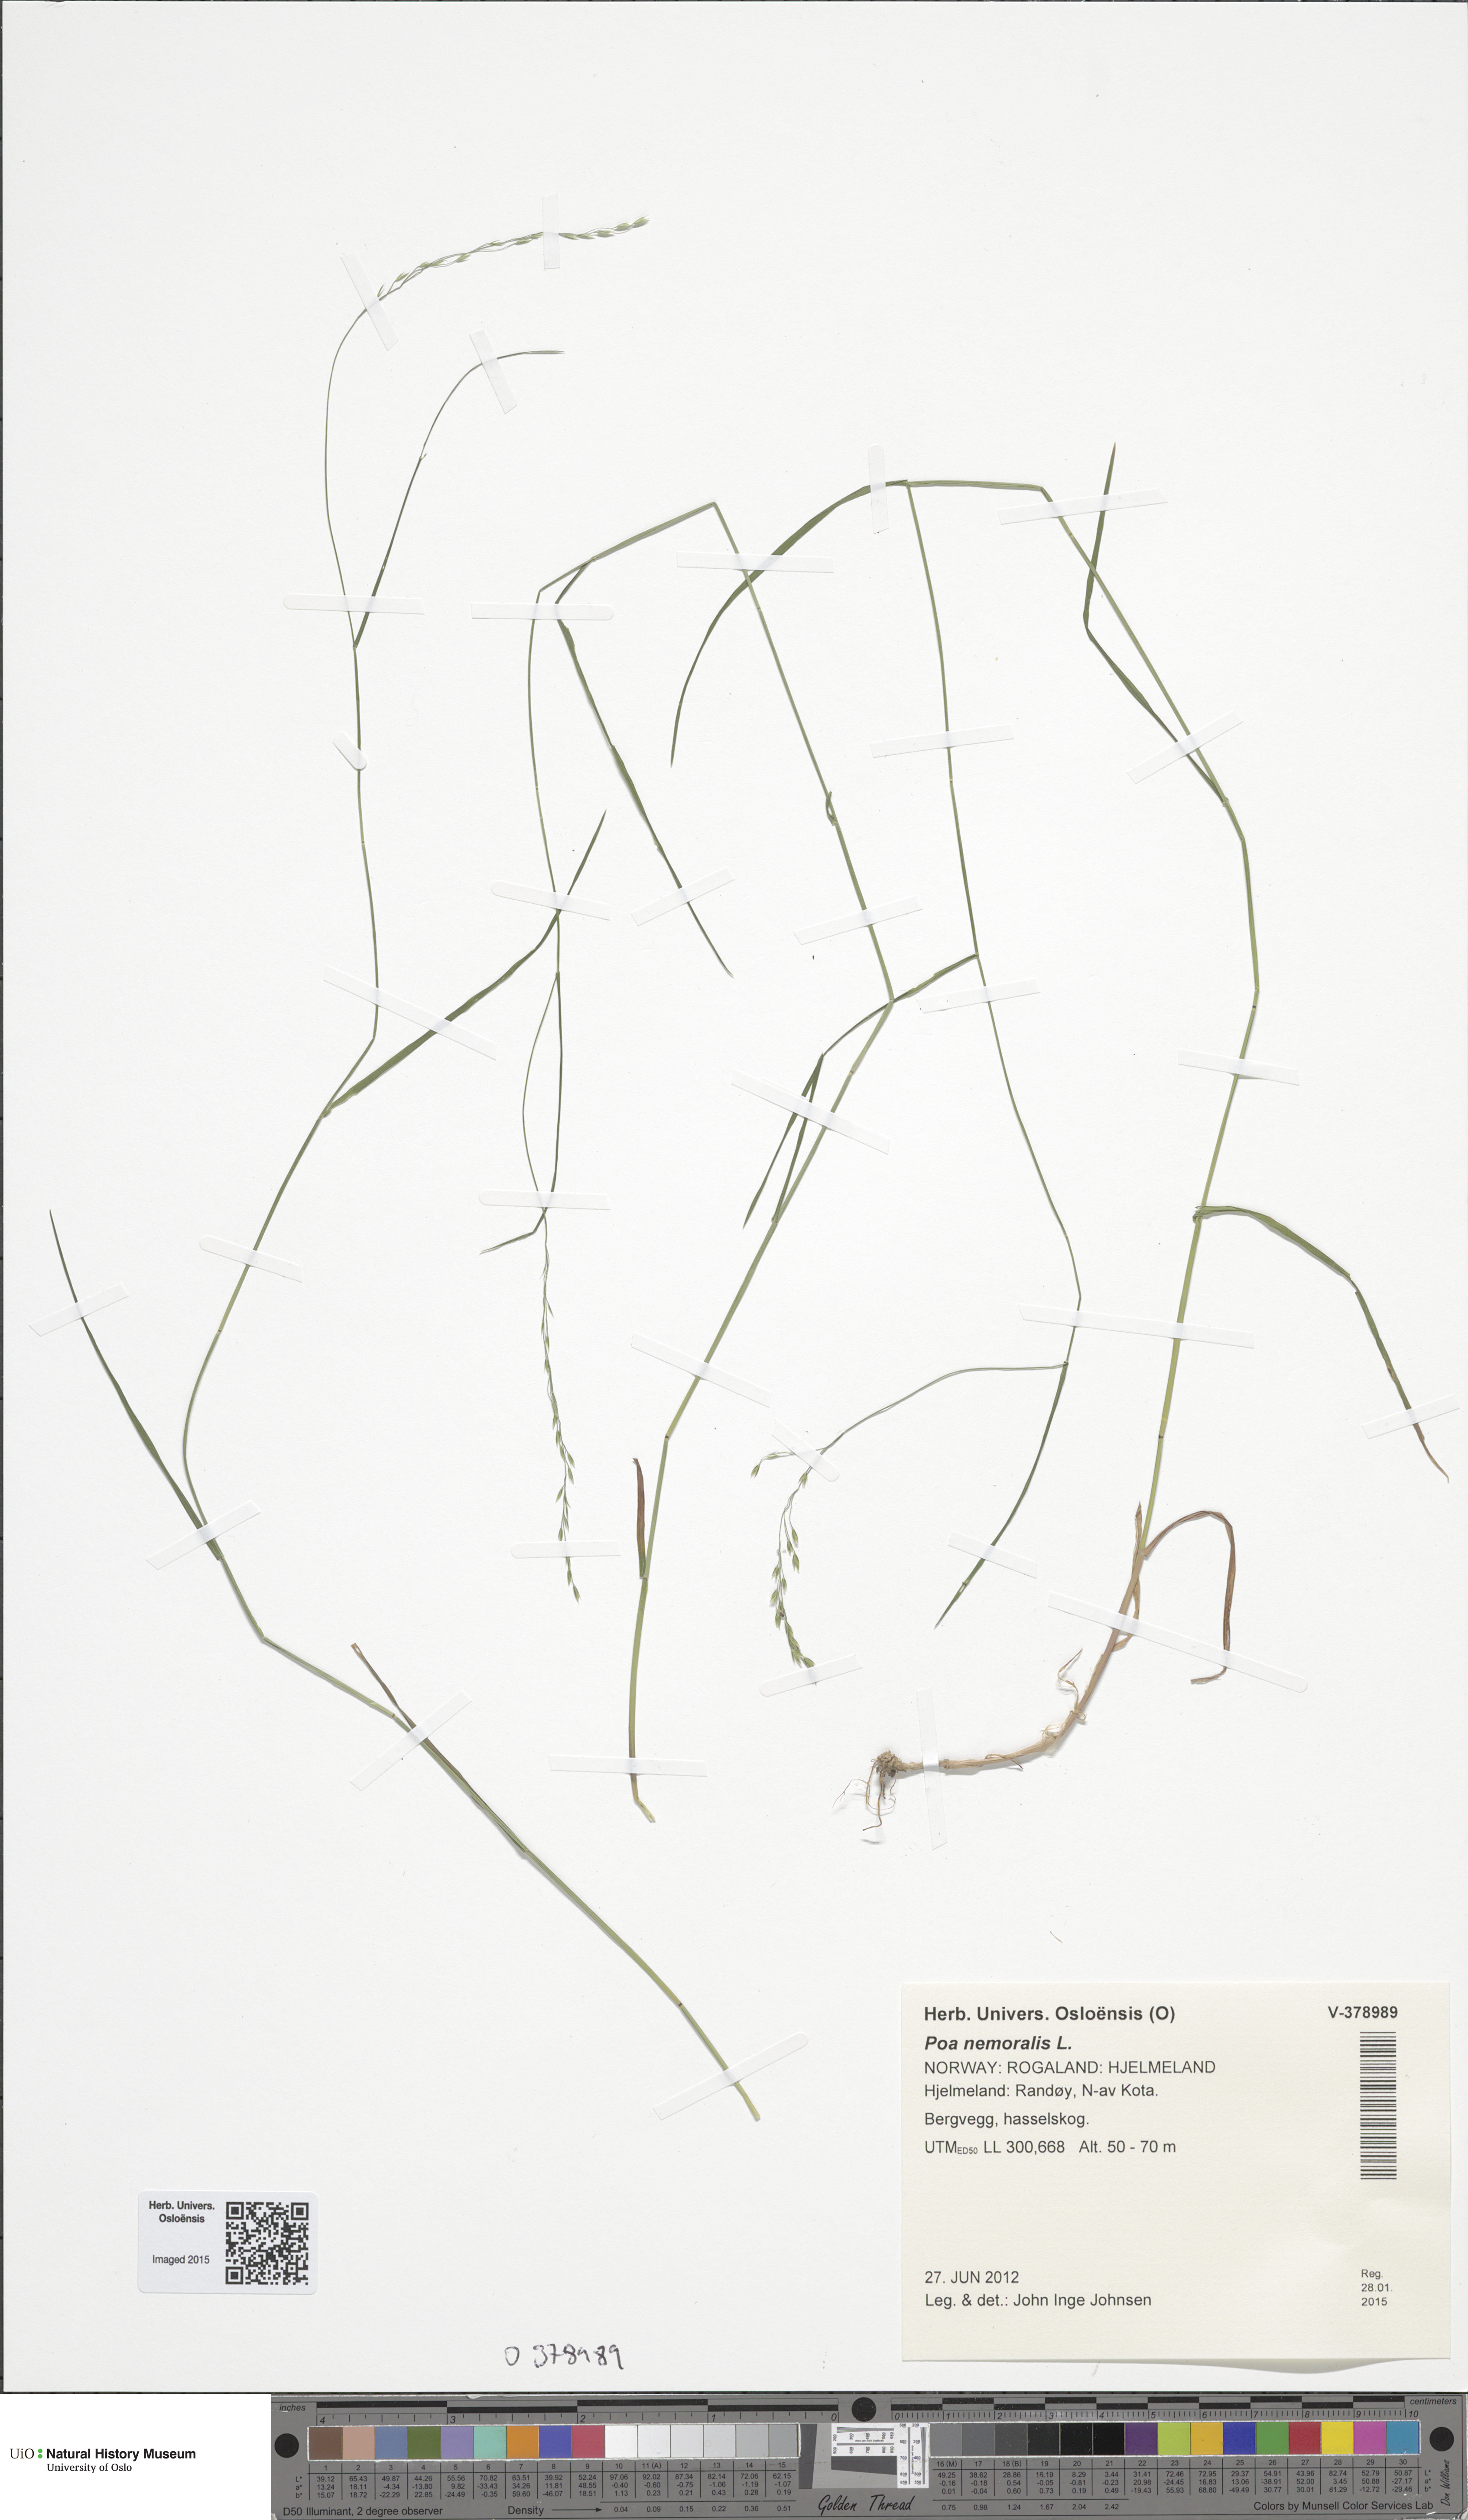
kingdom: Plantae
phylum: Tracheophyta
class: Liliopsida
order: Poales
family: Poaceae
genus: Poa
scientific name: Poa nemoralis
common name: Wood bluegrass
